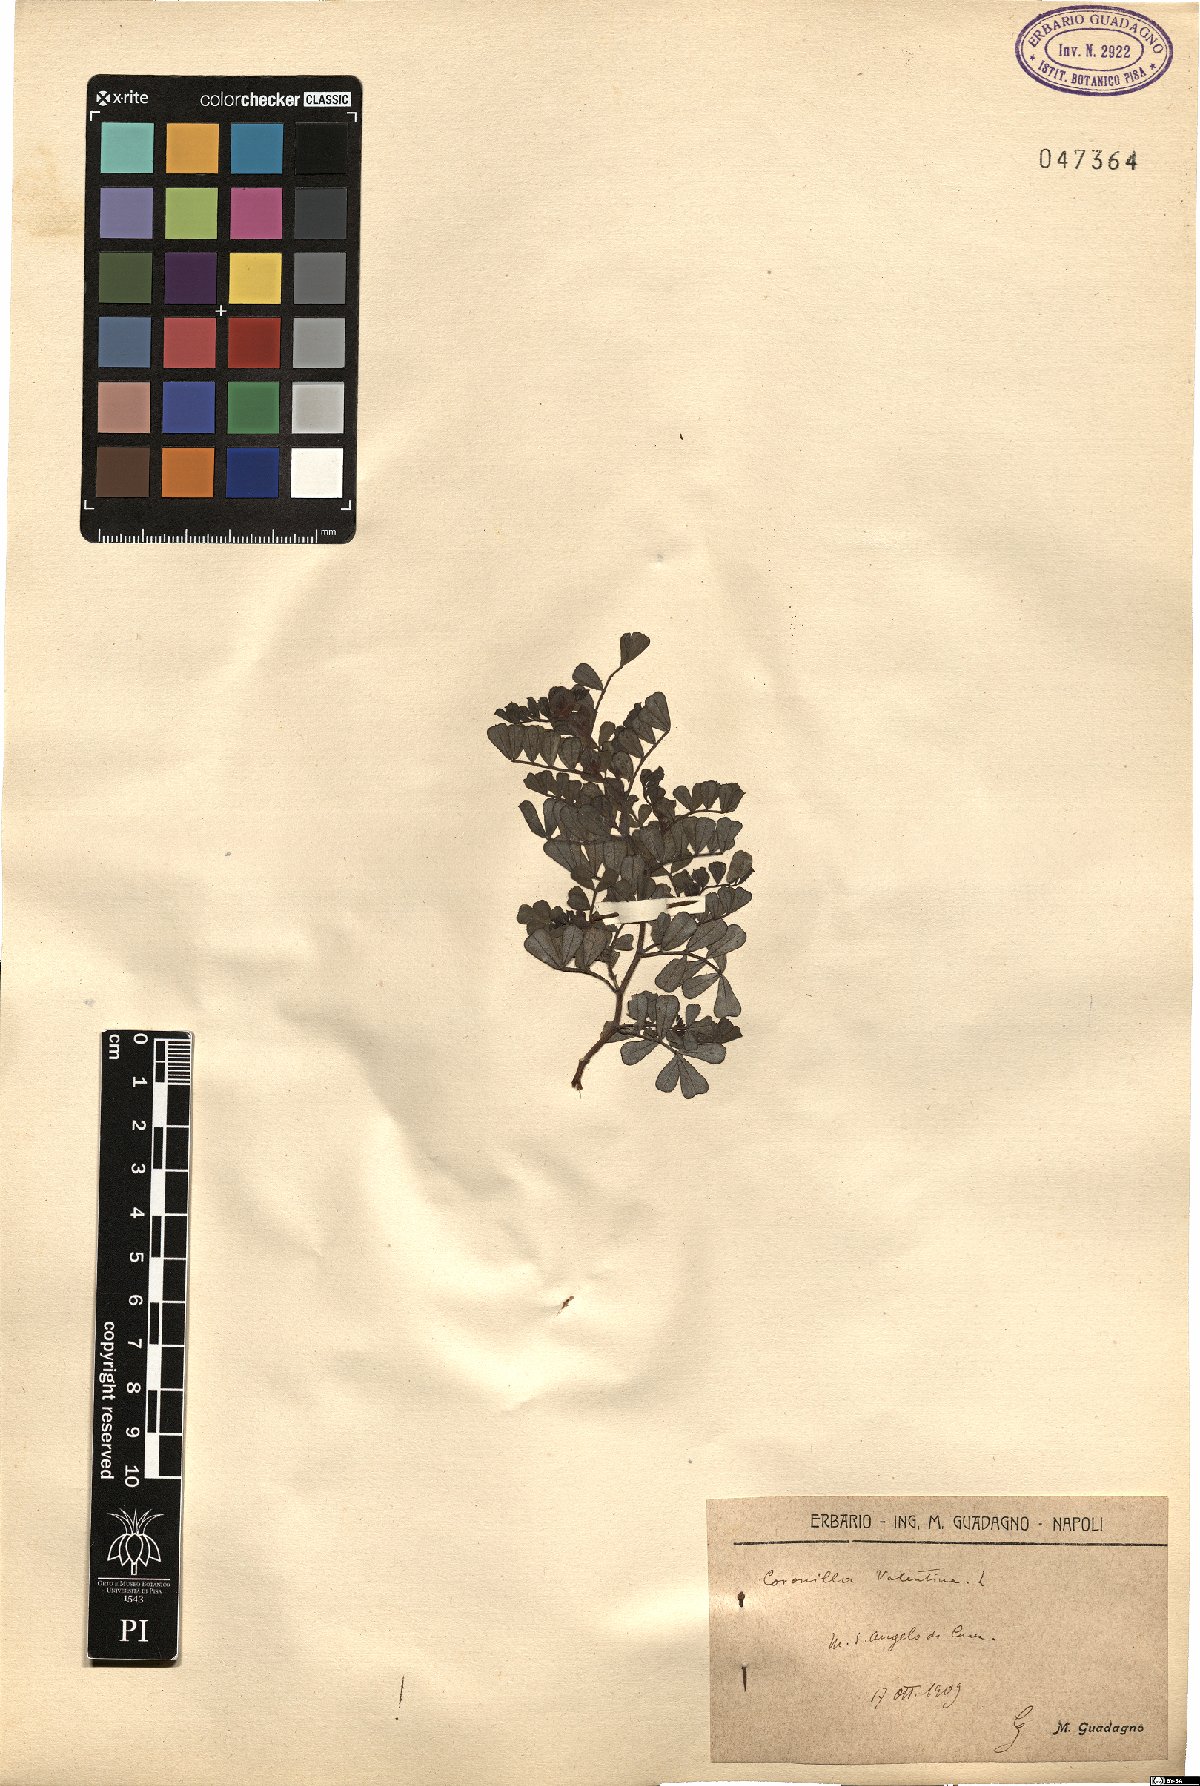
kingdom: Plantae
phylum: Tracheophyta
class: Magnoliopsida
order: Fabales
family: Fabaceae
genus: Coronilla
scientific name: Coronilla valentina
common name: Shrubby scorpion-vetch
